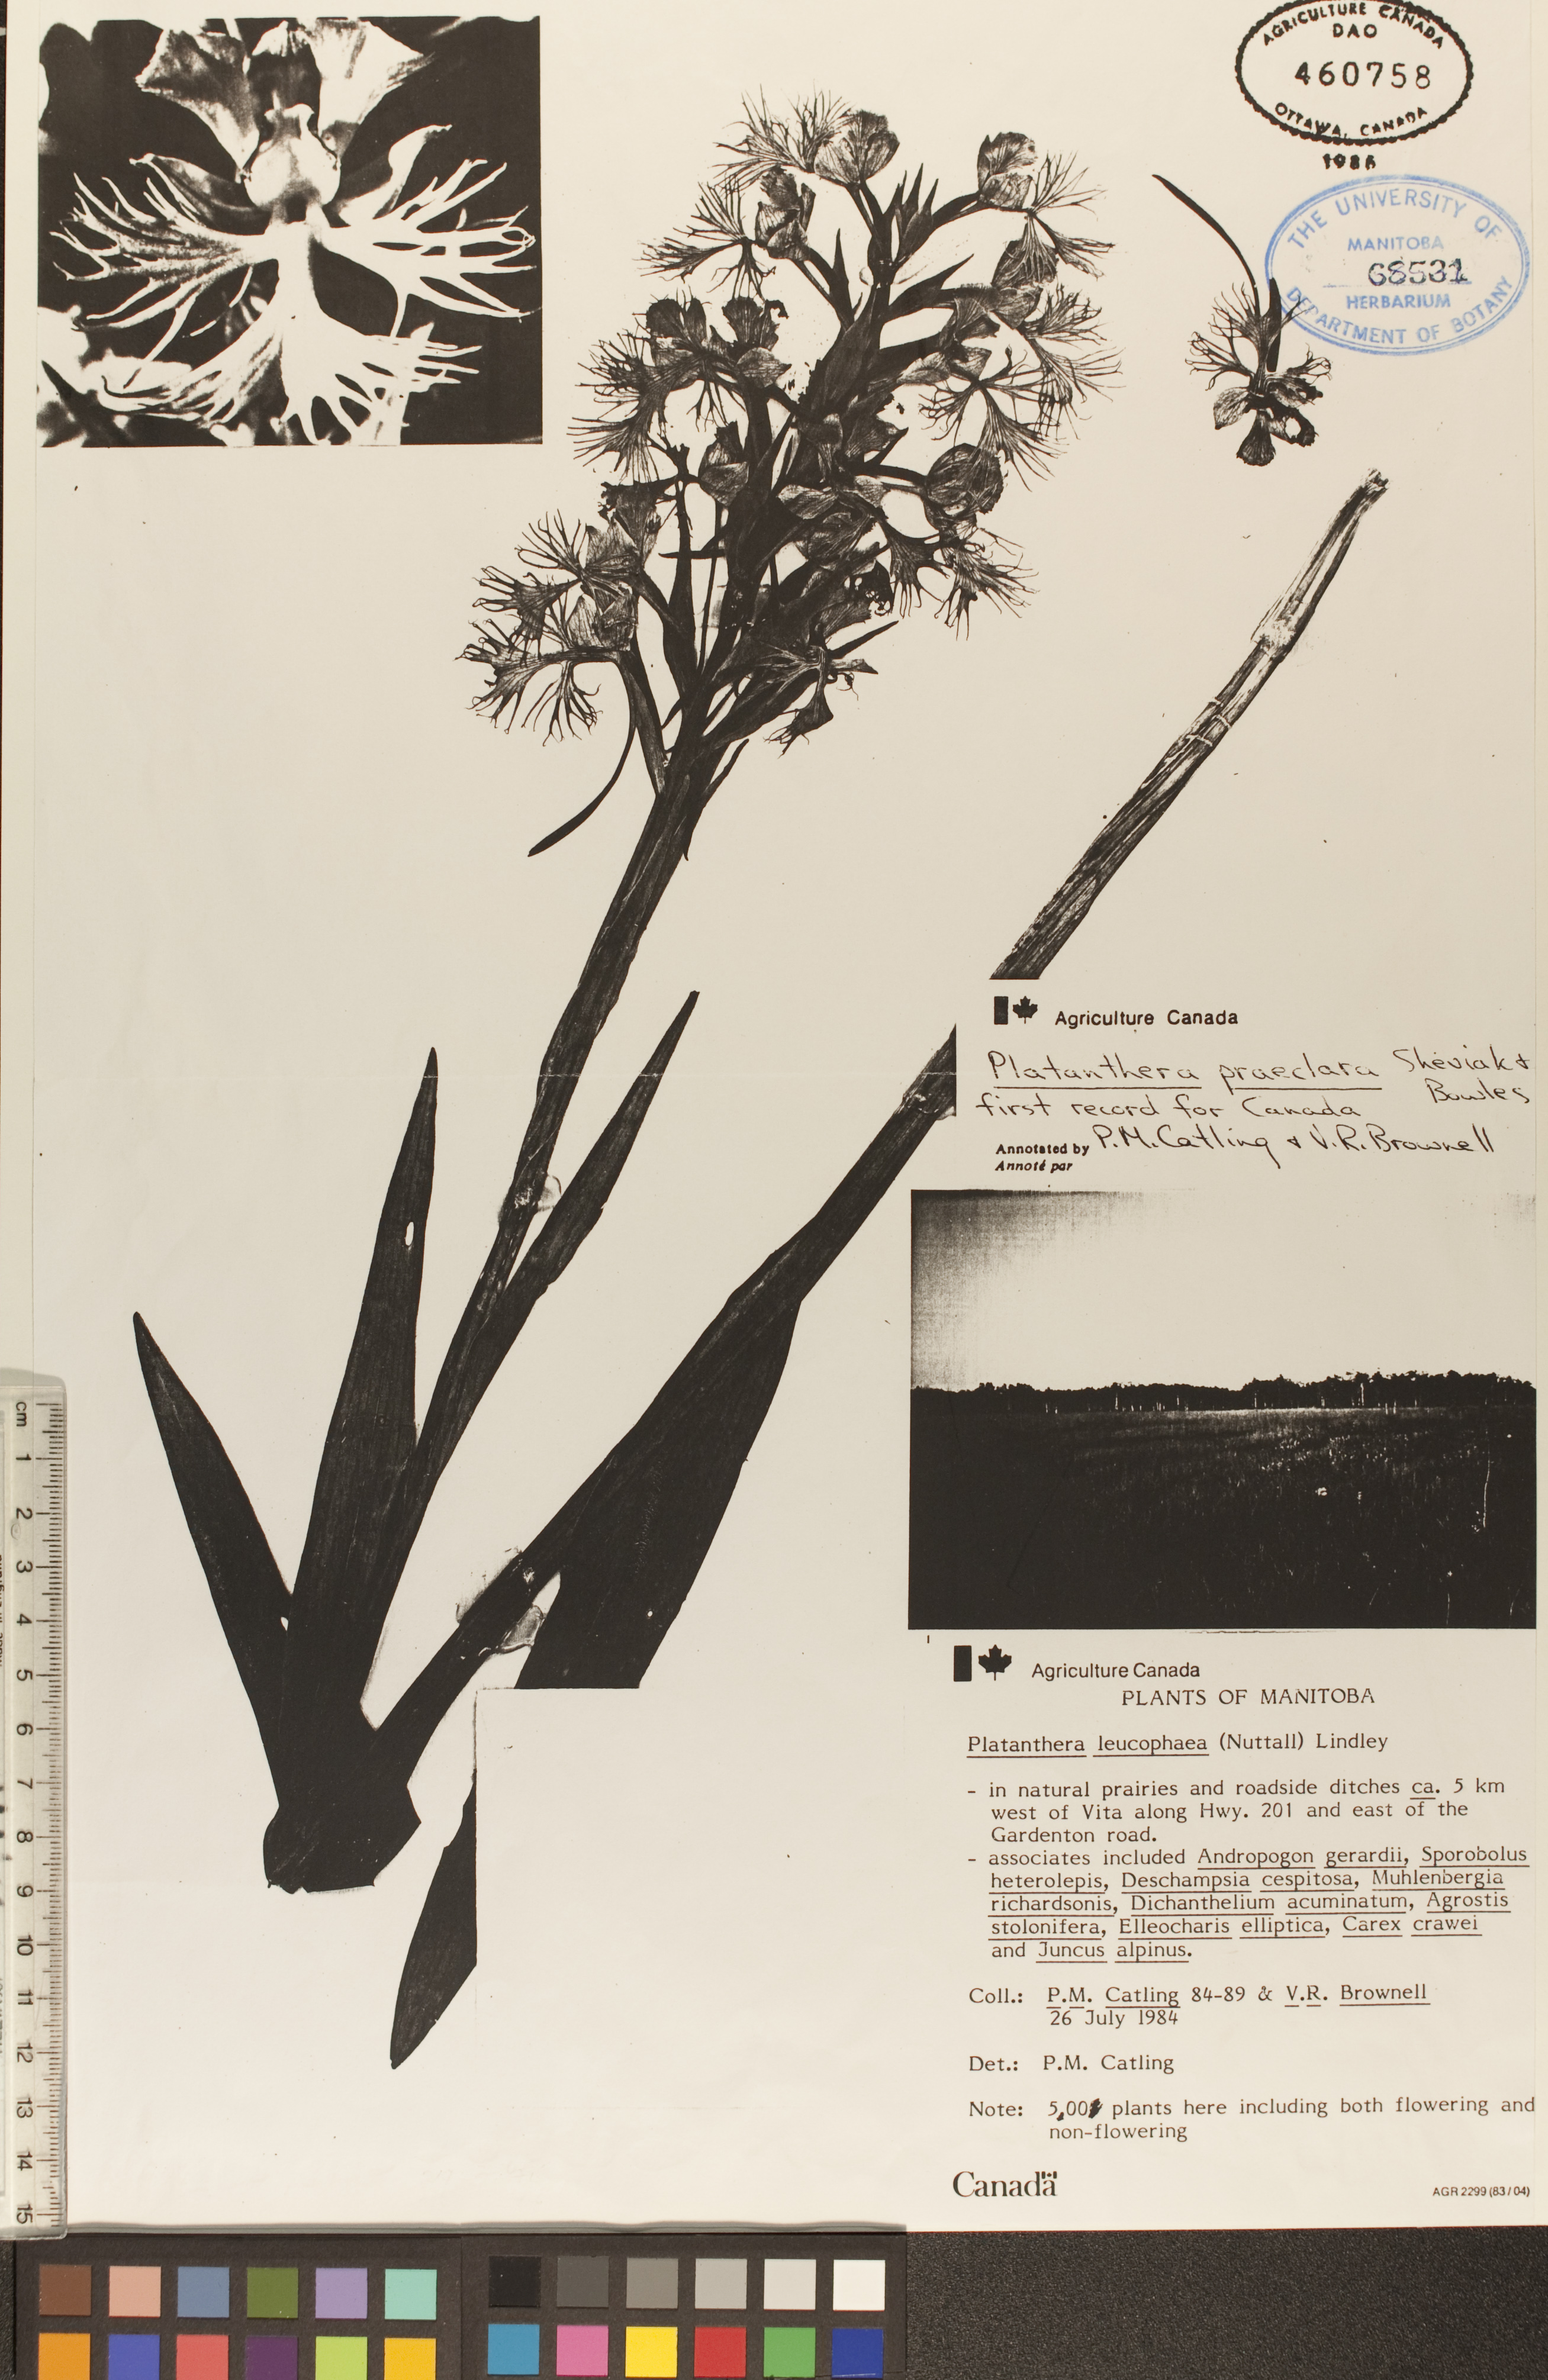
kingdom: Plantae
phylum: Tracheophyta
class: Liliopsida
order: Asparagales
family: Orchidaceae
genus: Platanthera
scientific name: Platanthera praeclara
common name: Western prairie fringed orchid
